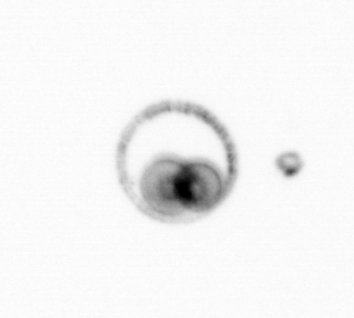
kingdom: Chromista
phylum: Myzozoa
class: Dinophyceae
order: Noctilucales
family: Noctilucaceae
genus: Noctiluca
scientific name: Noctiluca scintillans
